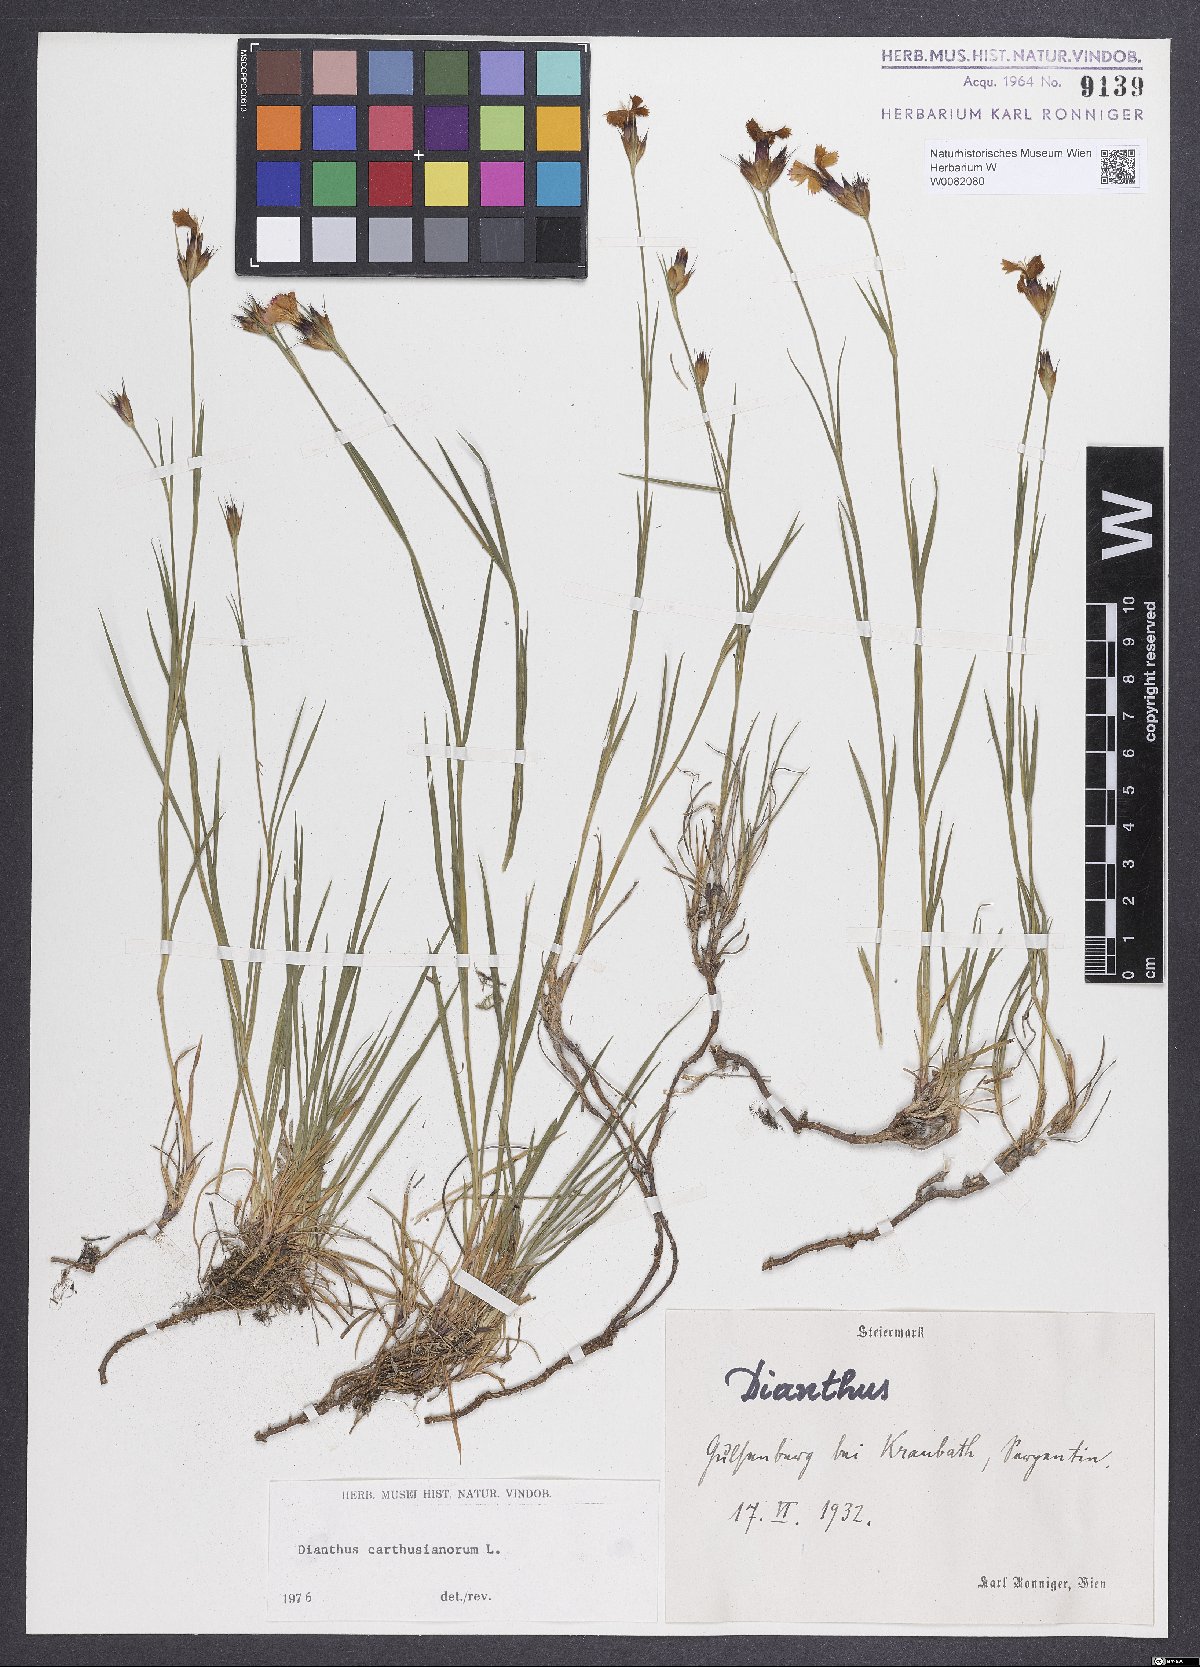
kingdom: Plantae
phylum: Tracheophyta
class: Magnoliopsida
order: Caryophyllales
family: Caryophyllaceae
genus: Dianthus
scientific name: Dianthus carthusianorum
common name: Carthusian pink
